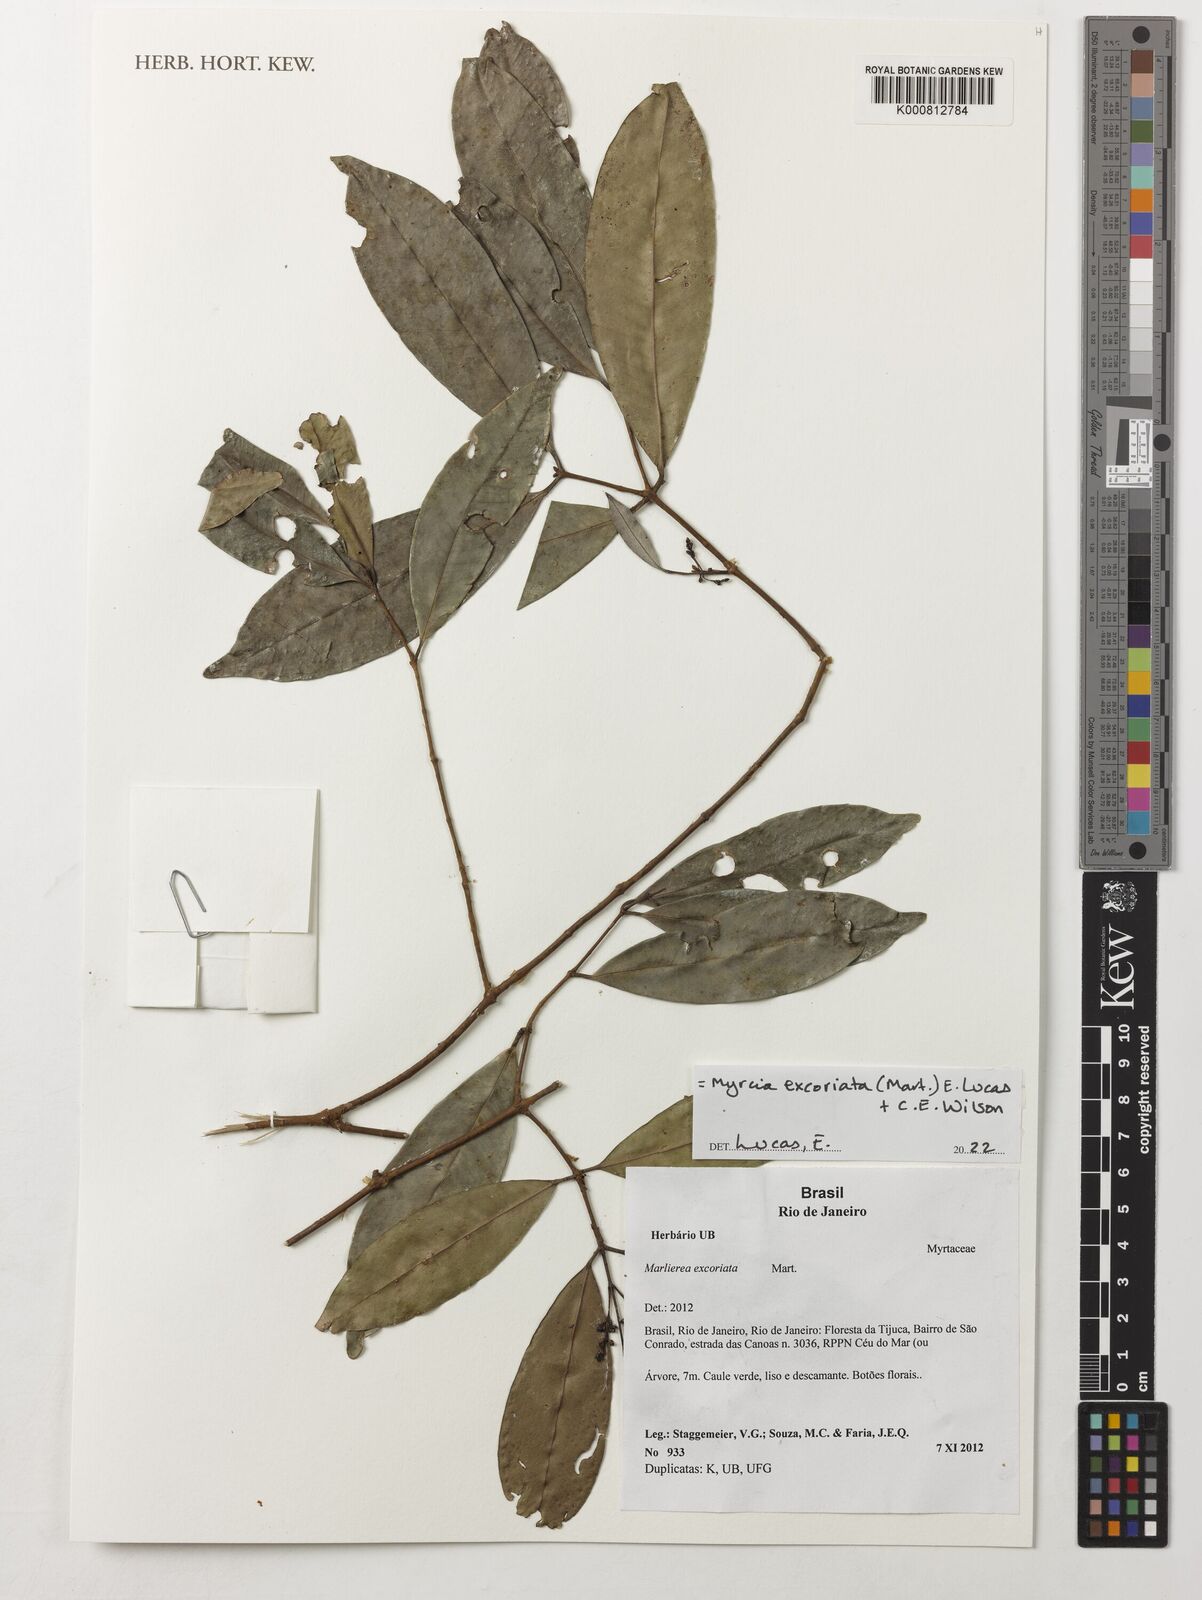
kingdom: Plantae
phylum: Tracheophyta
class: Magnoliopsida
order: Myrtales
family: Myrtaceae
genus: Myrcia
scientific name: Myrcia excoriata
